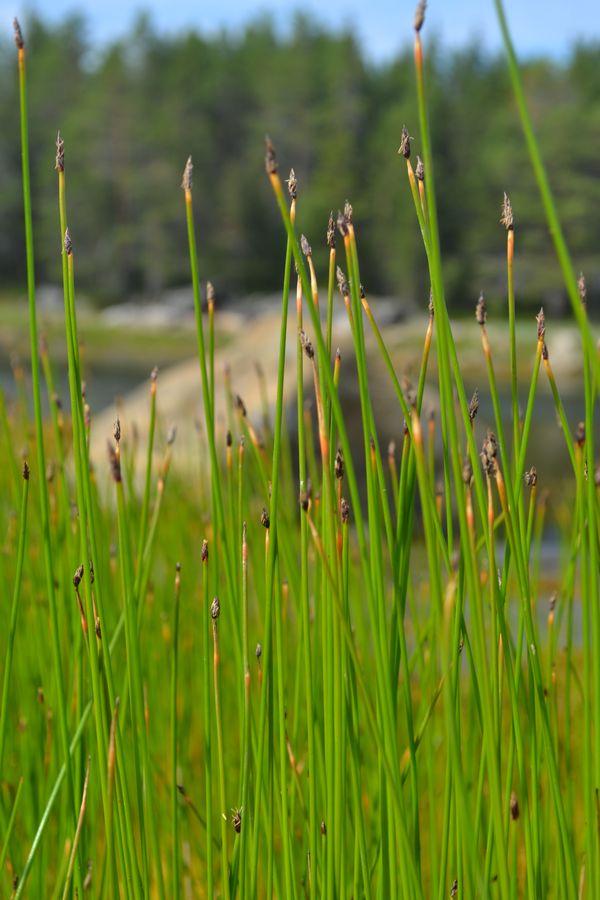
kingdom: Plantae
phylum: Tracheophyta
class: Liliopsida
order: Poales
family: Cyperaceae
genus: Eleocharis
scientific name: Eleocharis uniglumis
